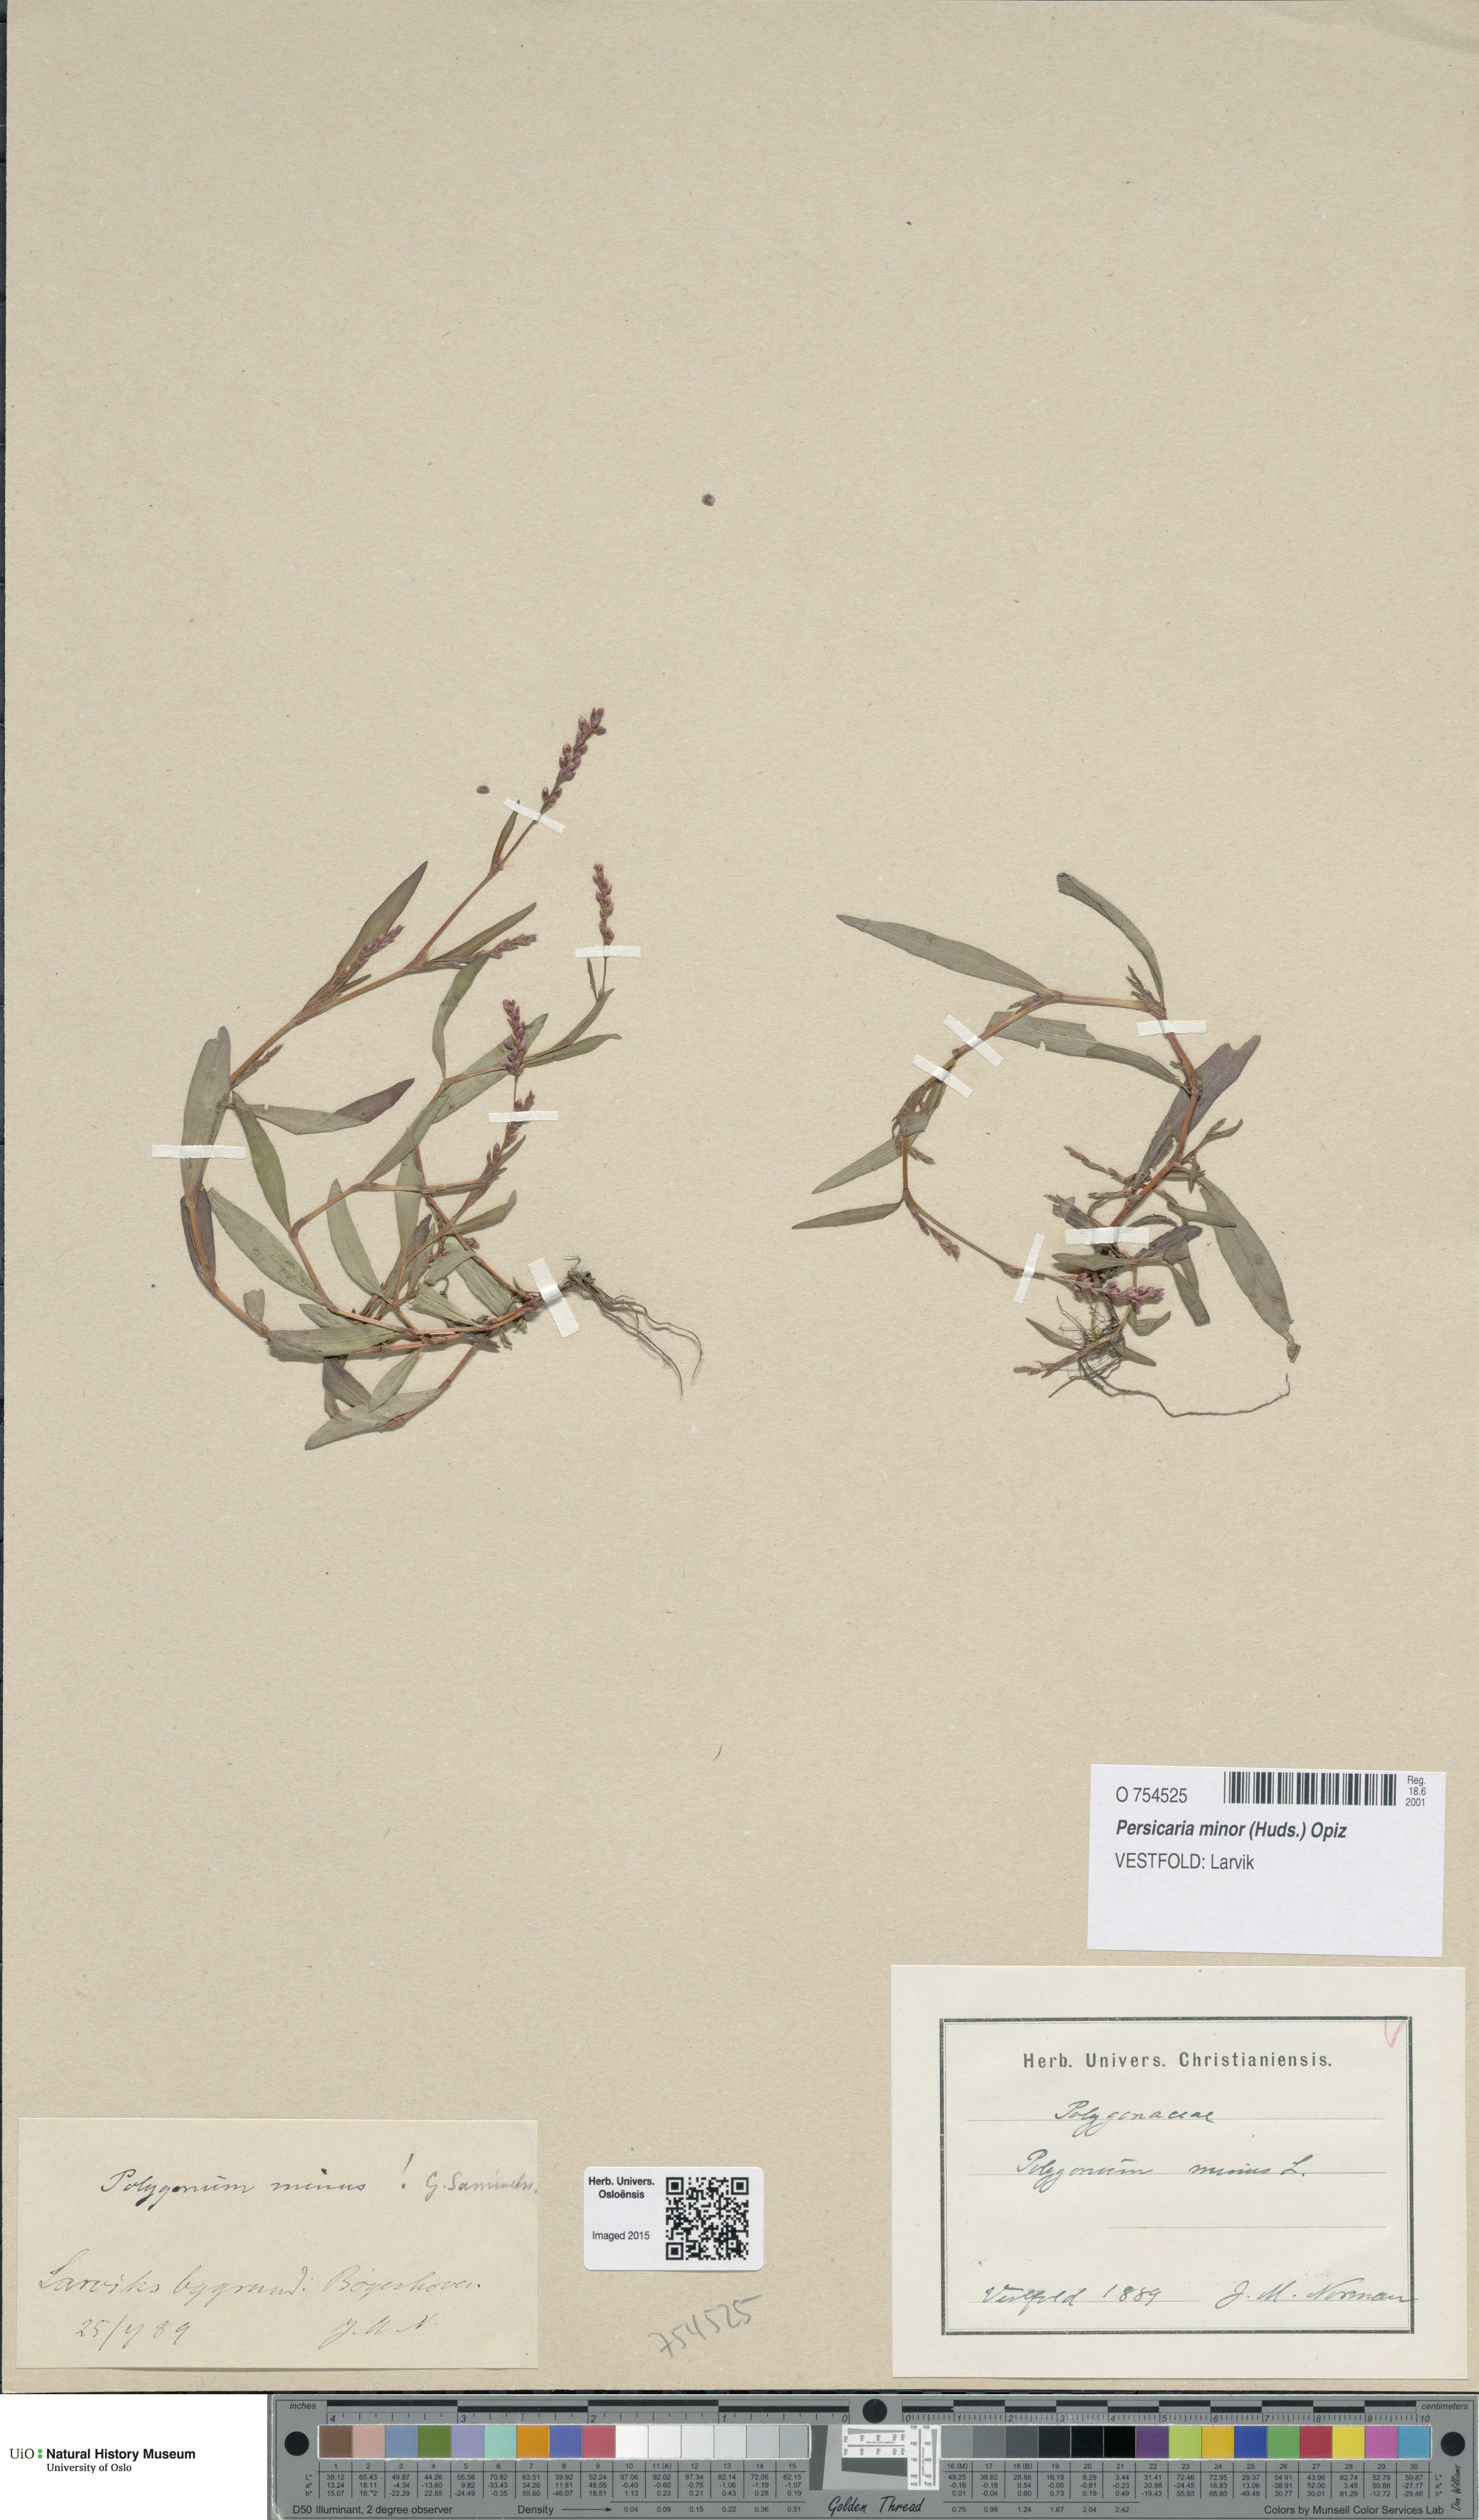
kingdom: Plantae
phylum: Tracheophyta
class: Magnoliopsida
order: Caryophyllales
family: Polygonaceae
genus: Persicaria
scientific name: Persicaria minor
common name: Small water-pepper
